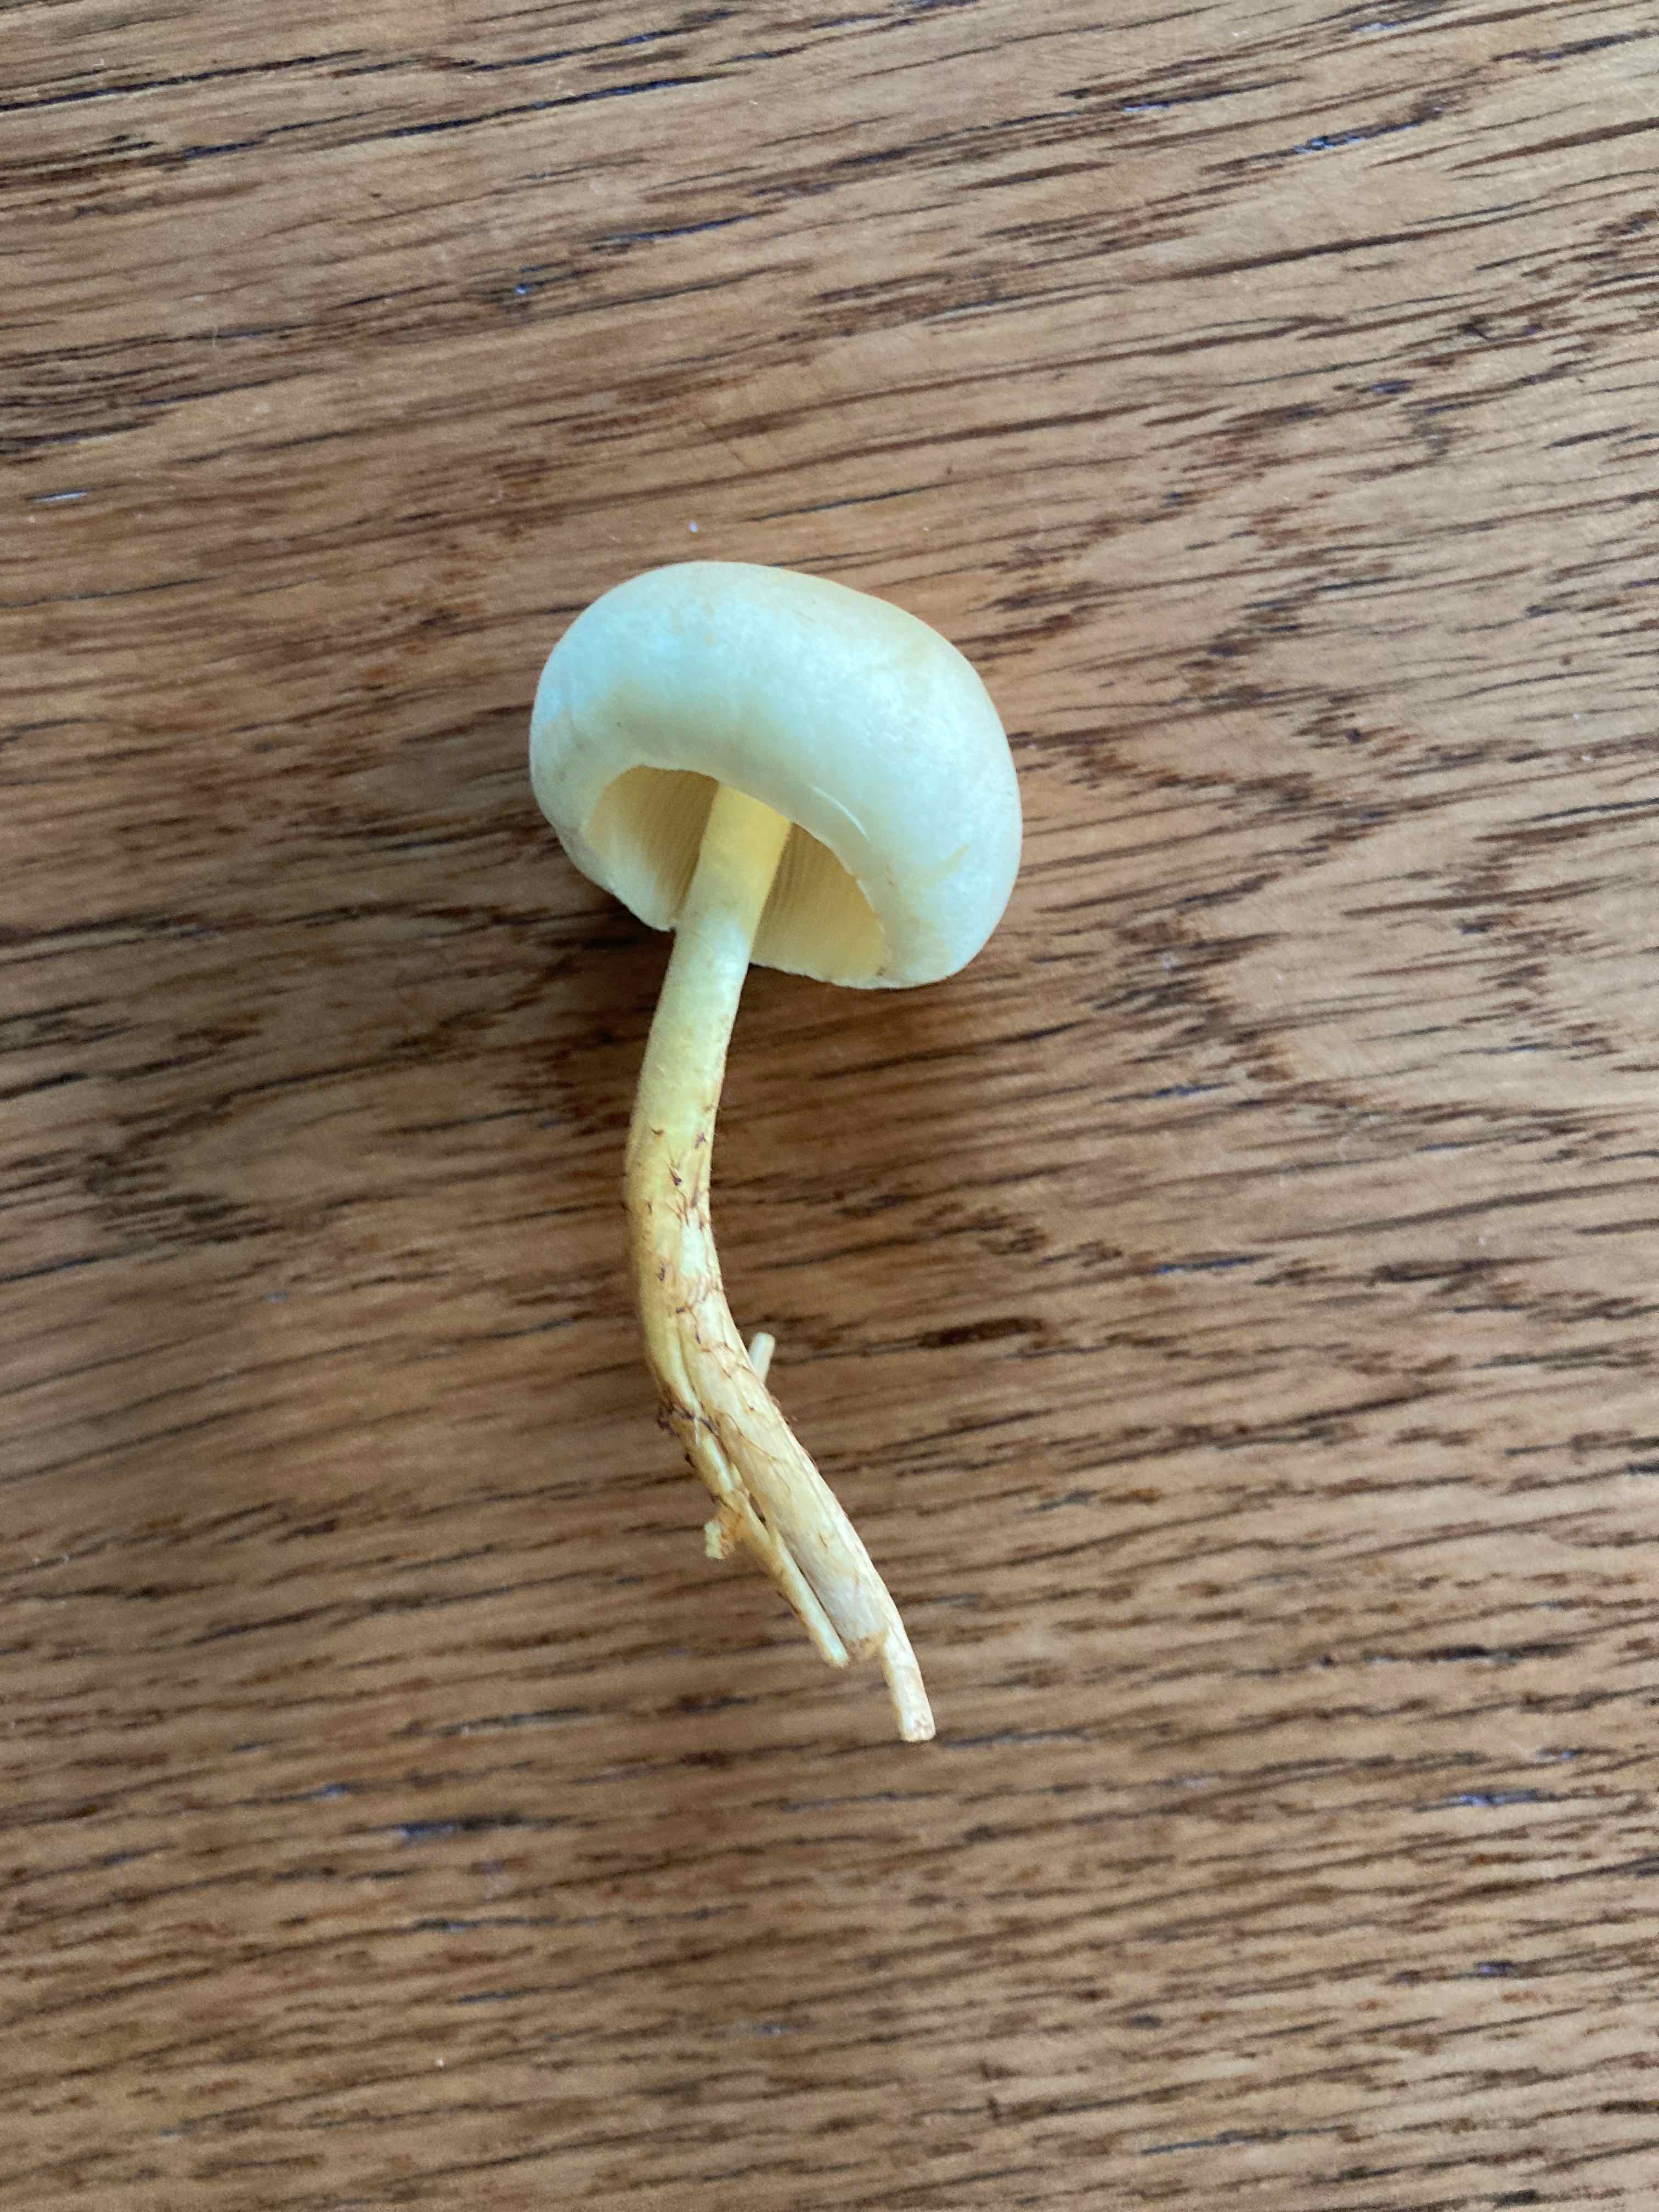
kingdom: Fungi
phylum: Basidiomycota
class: Agaricomycetes
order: Agaricales
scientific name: Agaricales
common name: champignonordenen
